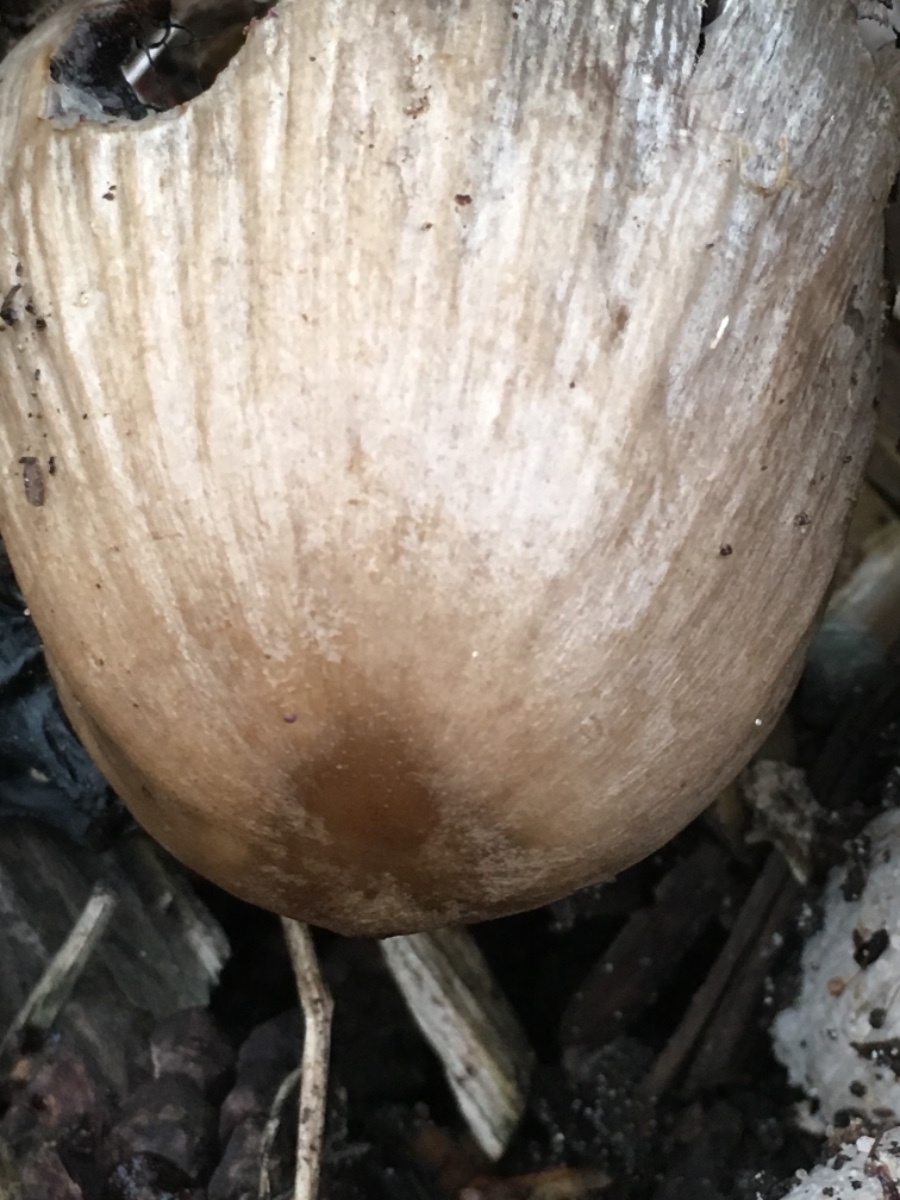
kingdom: Fungi
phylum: Basidiomycota
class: Agaricomycetes
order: Agaricales
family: Psathyrellaceae
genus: Coprinopsis
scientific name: Coprinopsis atramentaria
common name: almindelig blækhat
